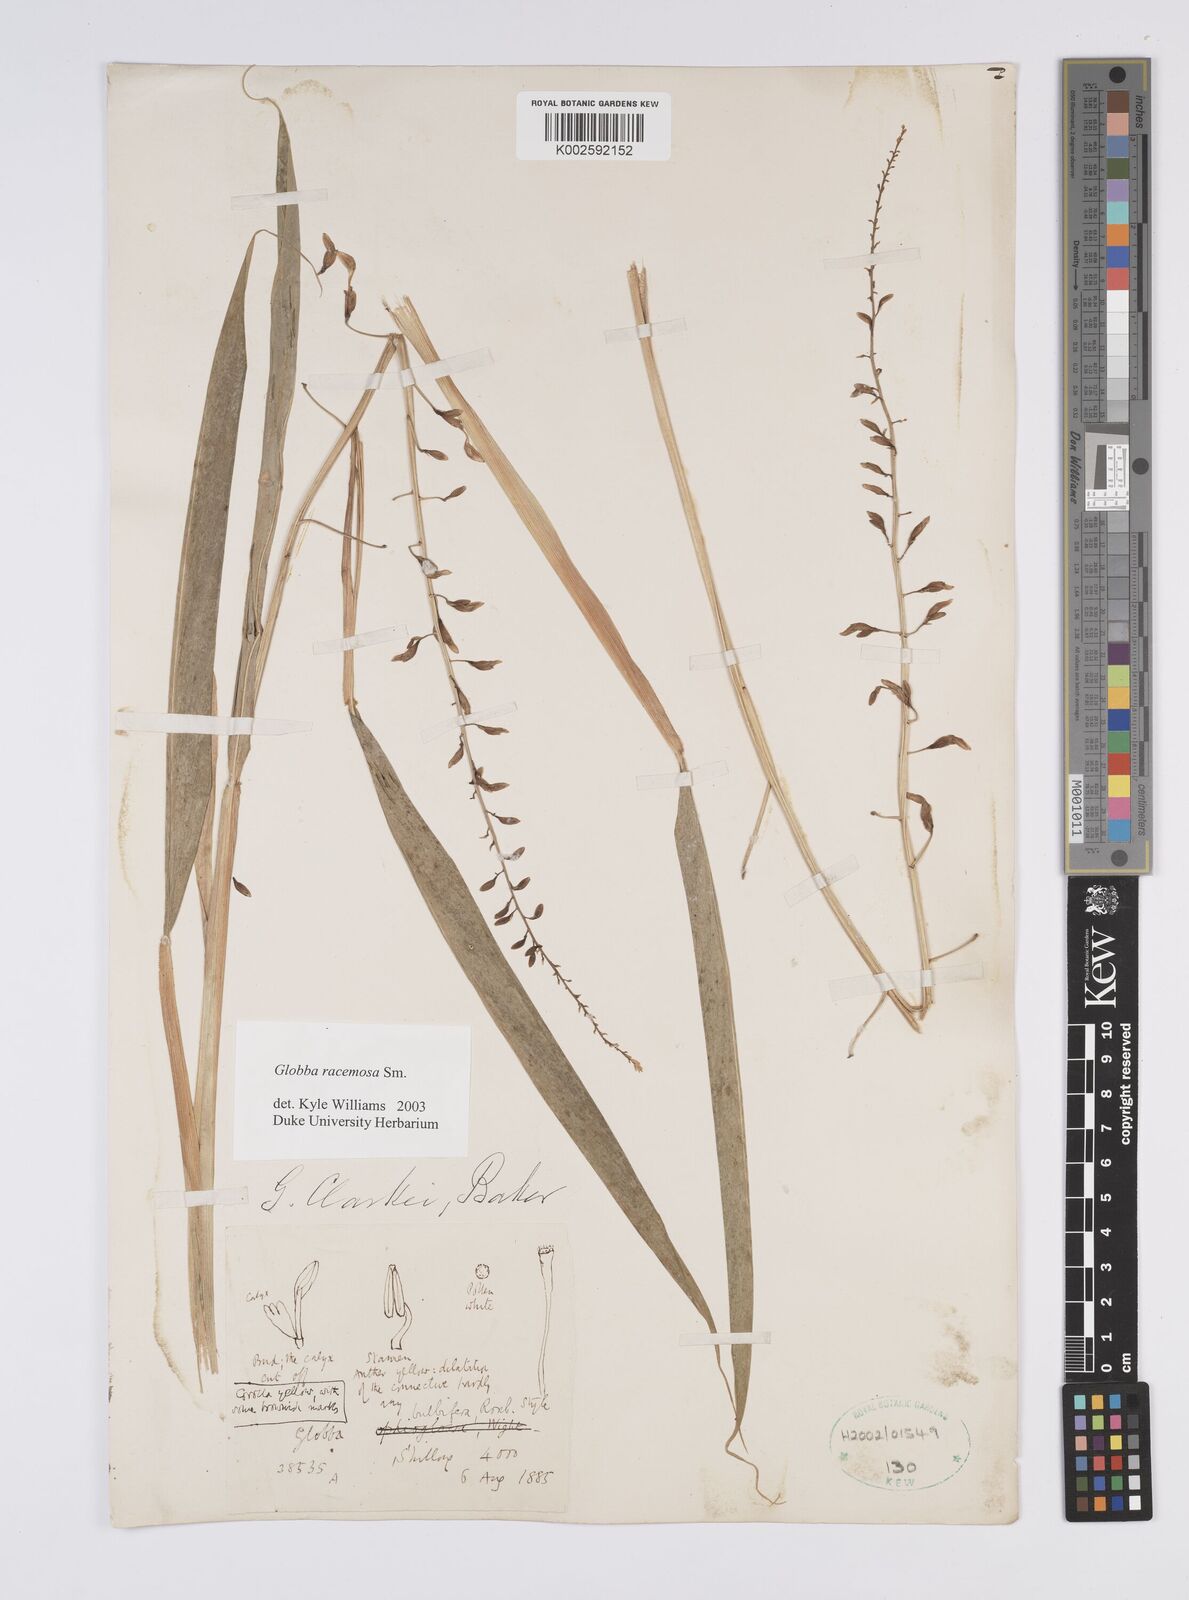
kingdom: Plantae
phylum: Tracheophyta
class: Liliopsida
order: Zingiberales
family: Zingiberaceae
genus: Globba
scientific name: Globba racemosa
